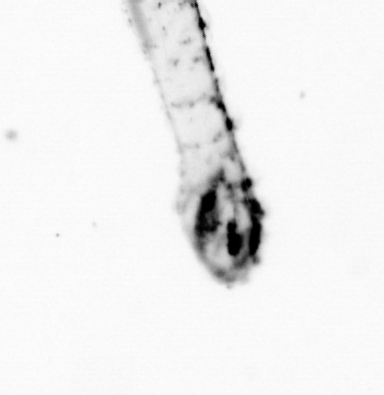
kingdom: Animalia
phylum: Chaetognatha
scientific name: Chaetognatha
